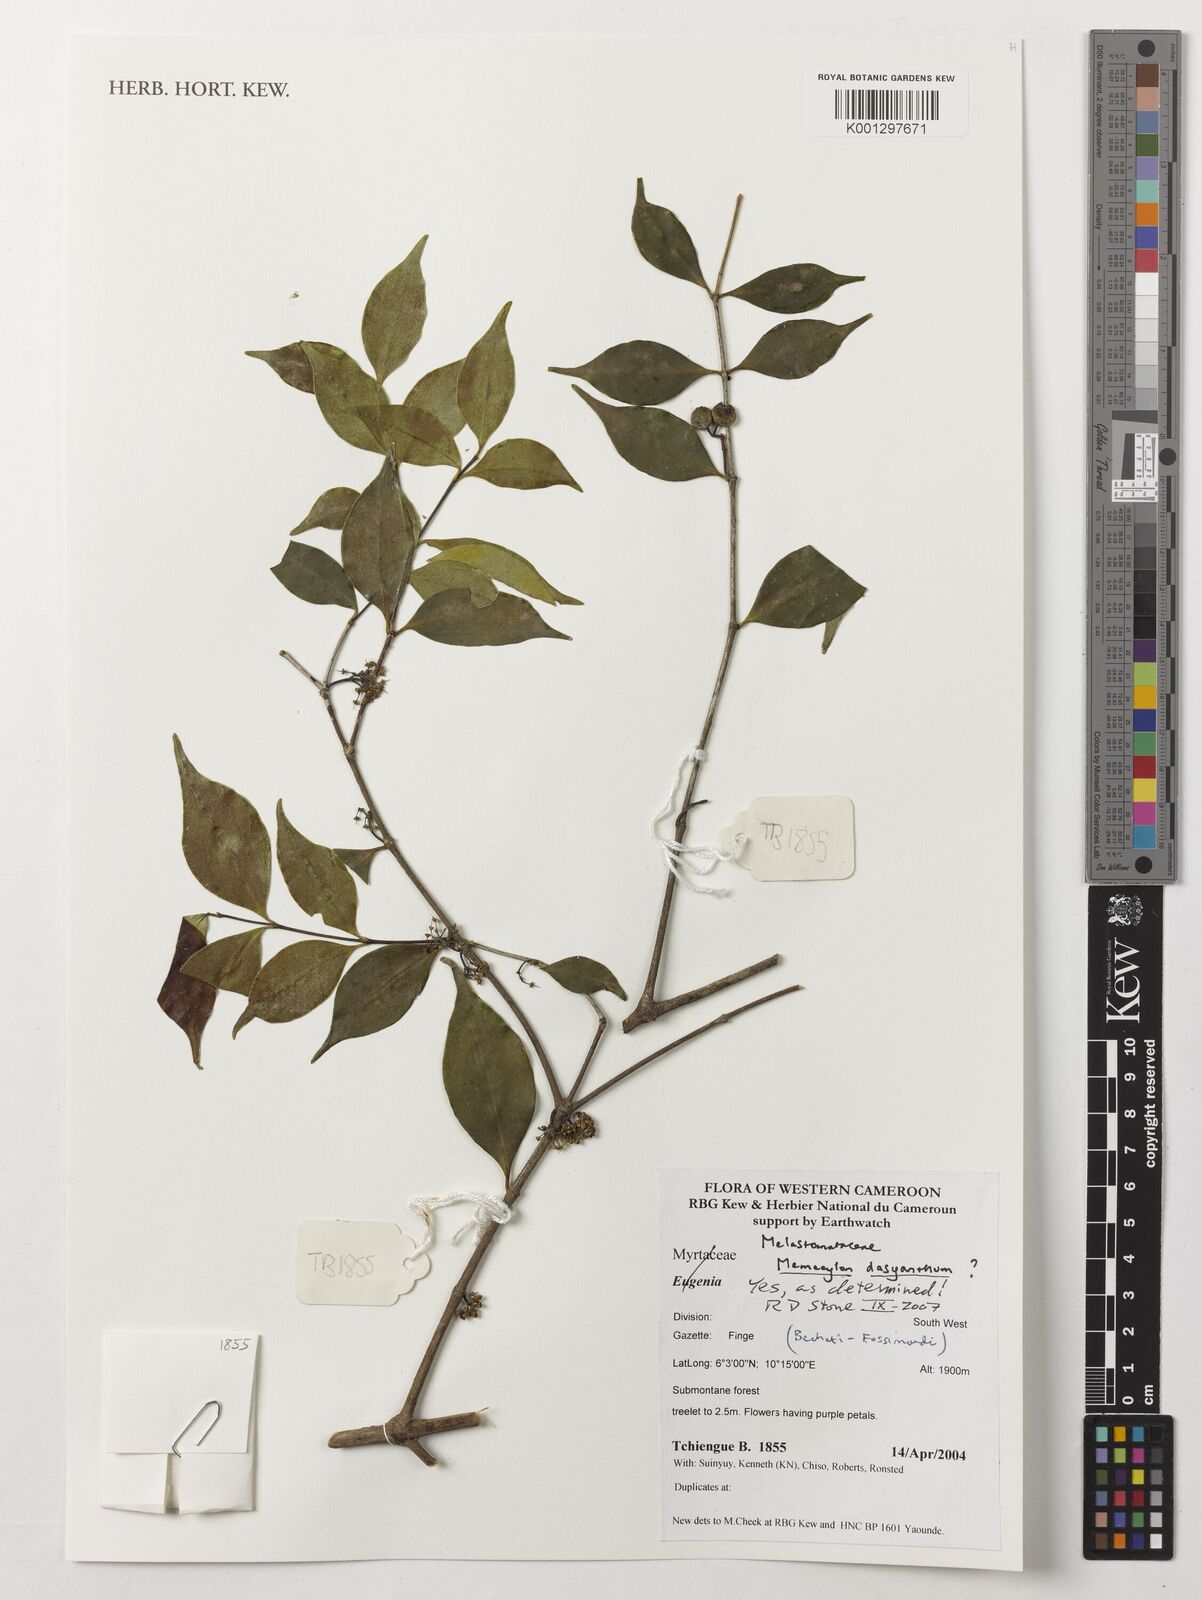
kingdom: Plantae
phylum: Tracheophyta
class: Magnoliopsida
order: Myrtales
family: Melastomataceae
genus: Memecylon
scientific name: Memecylon dasyanthum
